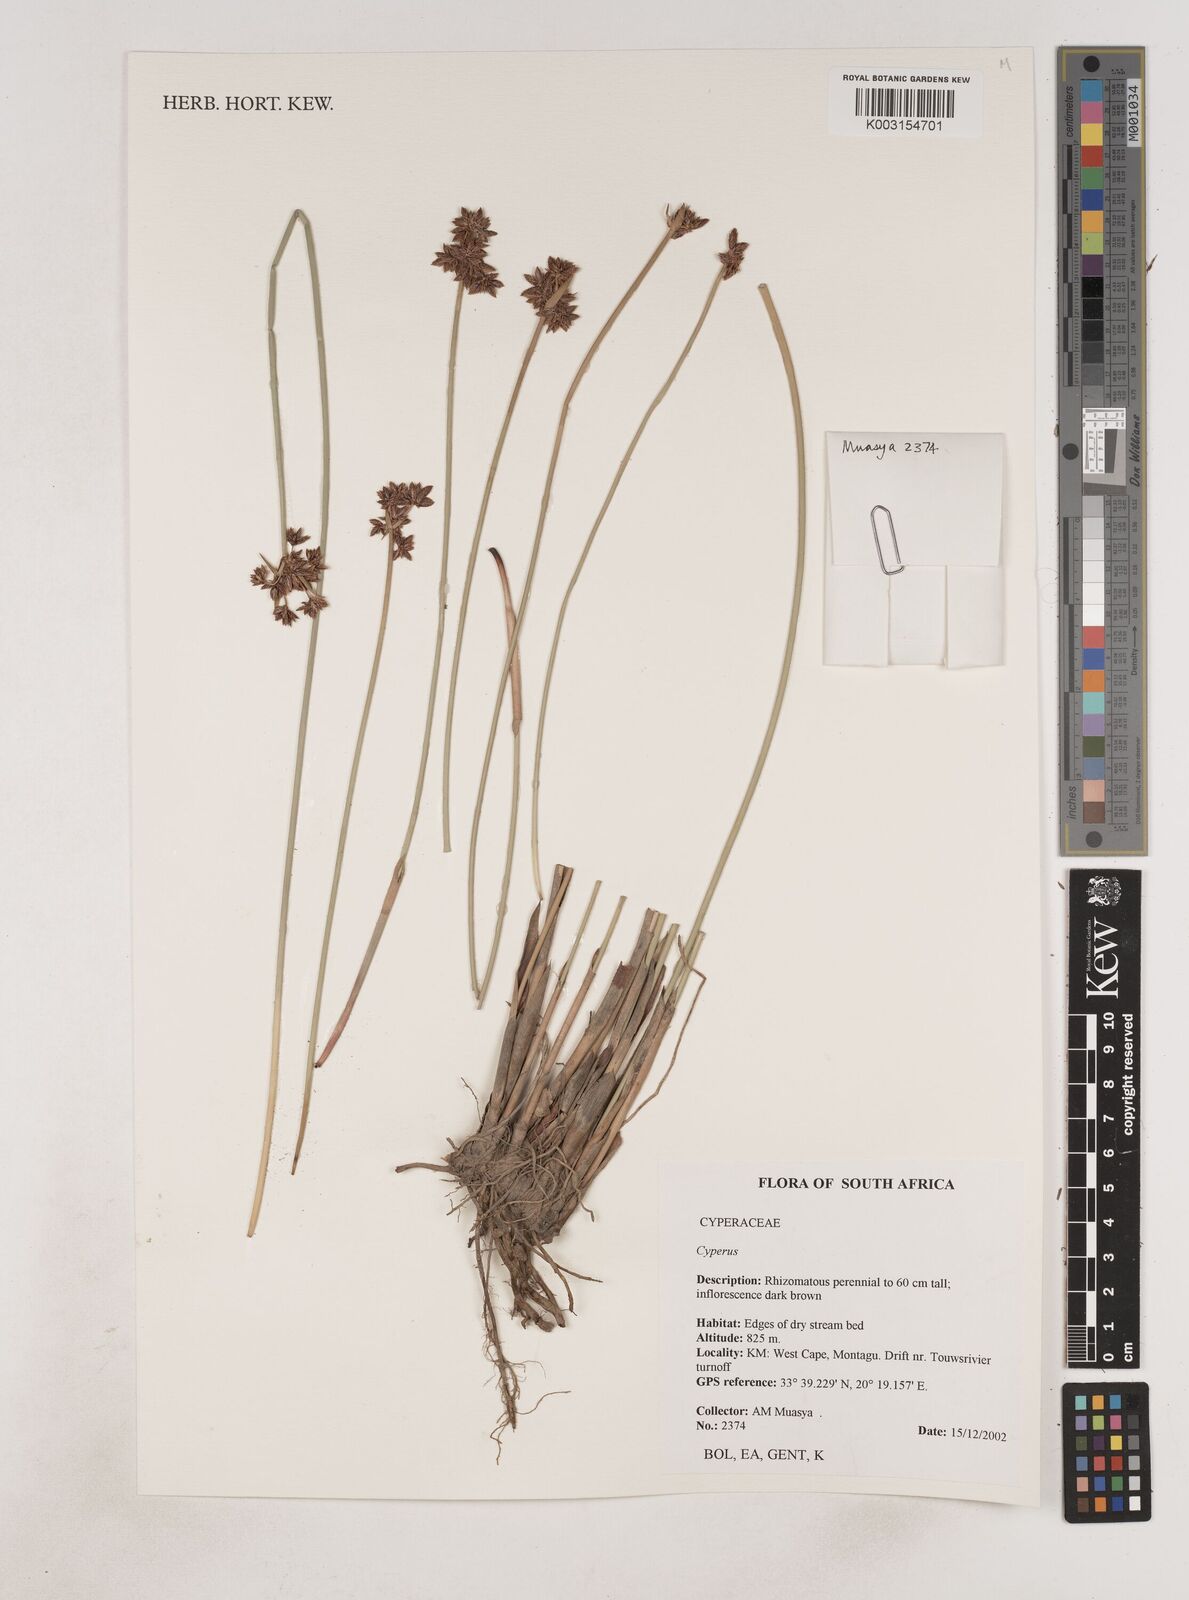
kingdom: Plantae
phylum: Tracheophyta
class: Liliopsida
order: Poales
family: Cyperaceae
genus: Cyperus
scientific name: Cyperus
